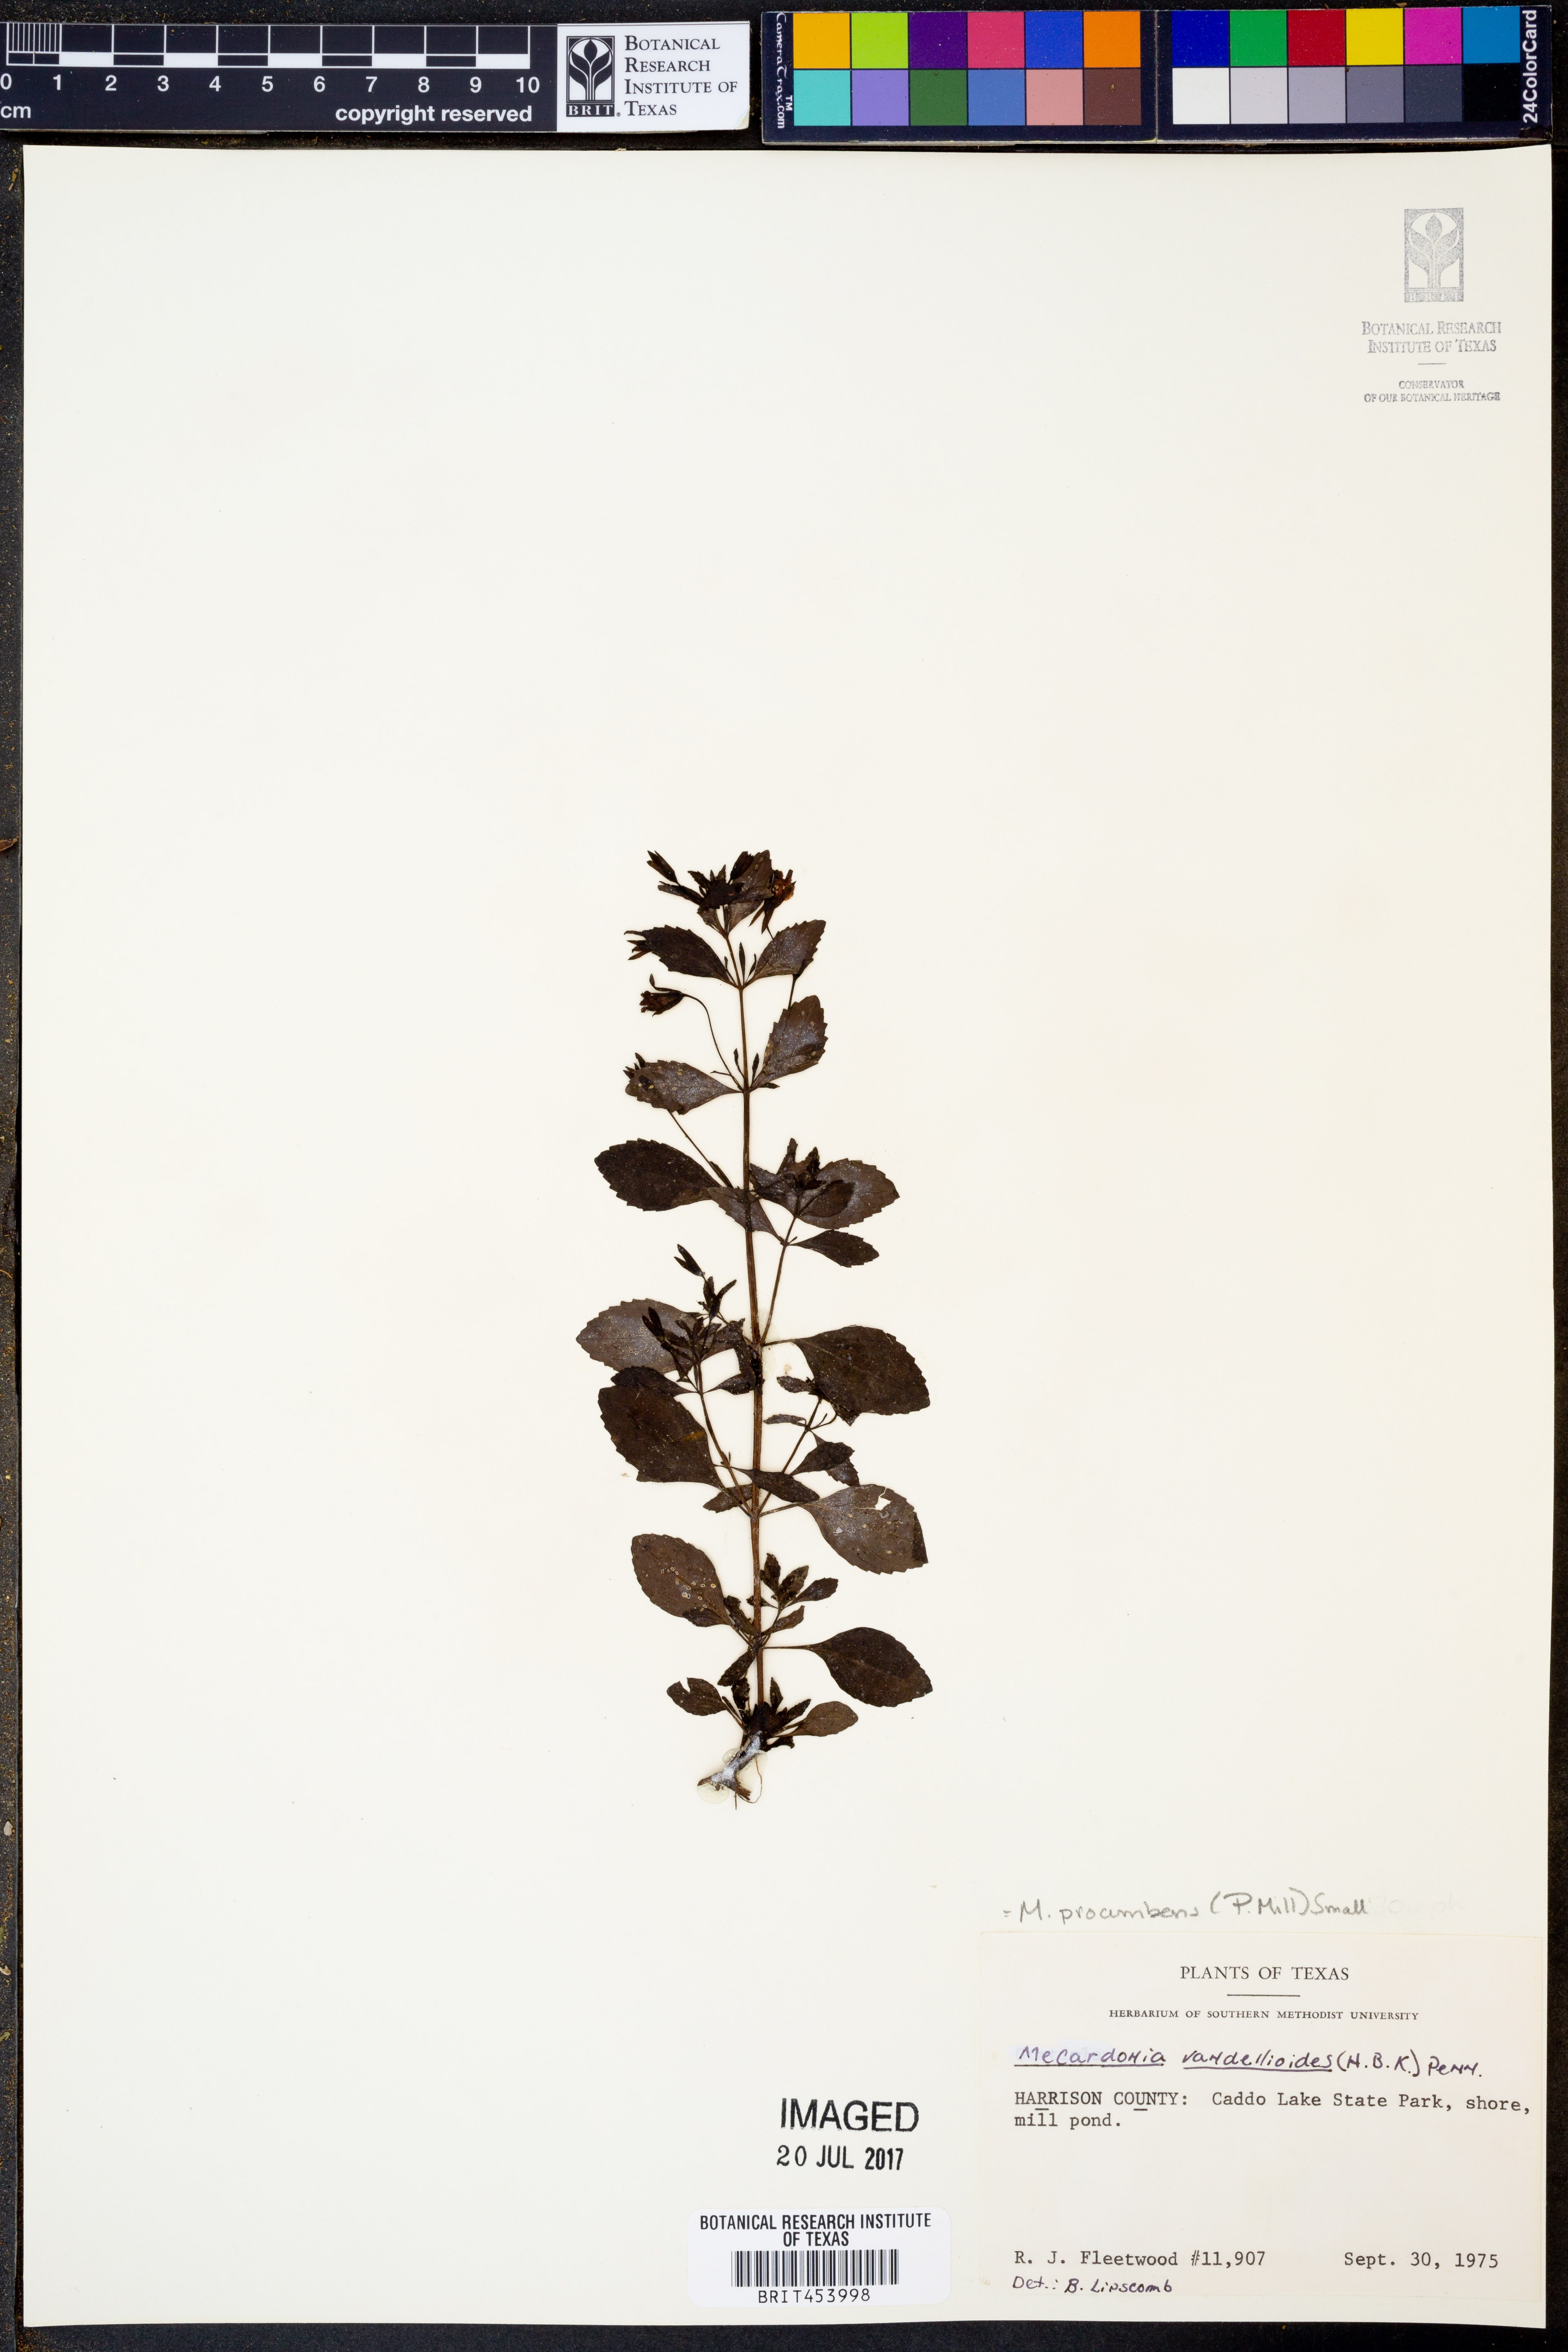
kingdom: Plantae
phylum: Tracheophyta
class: Magnoliopsida
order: Lamiales
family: Plantaginaceae
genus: Mecardonia
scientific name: Mecardonia procumbens
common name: Baby jump-up
